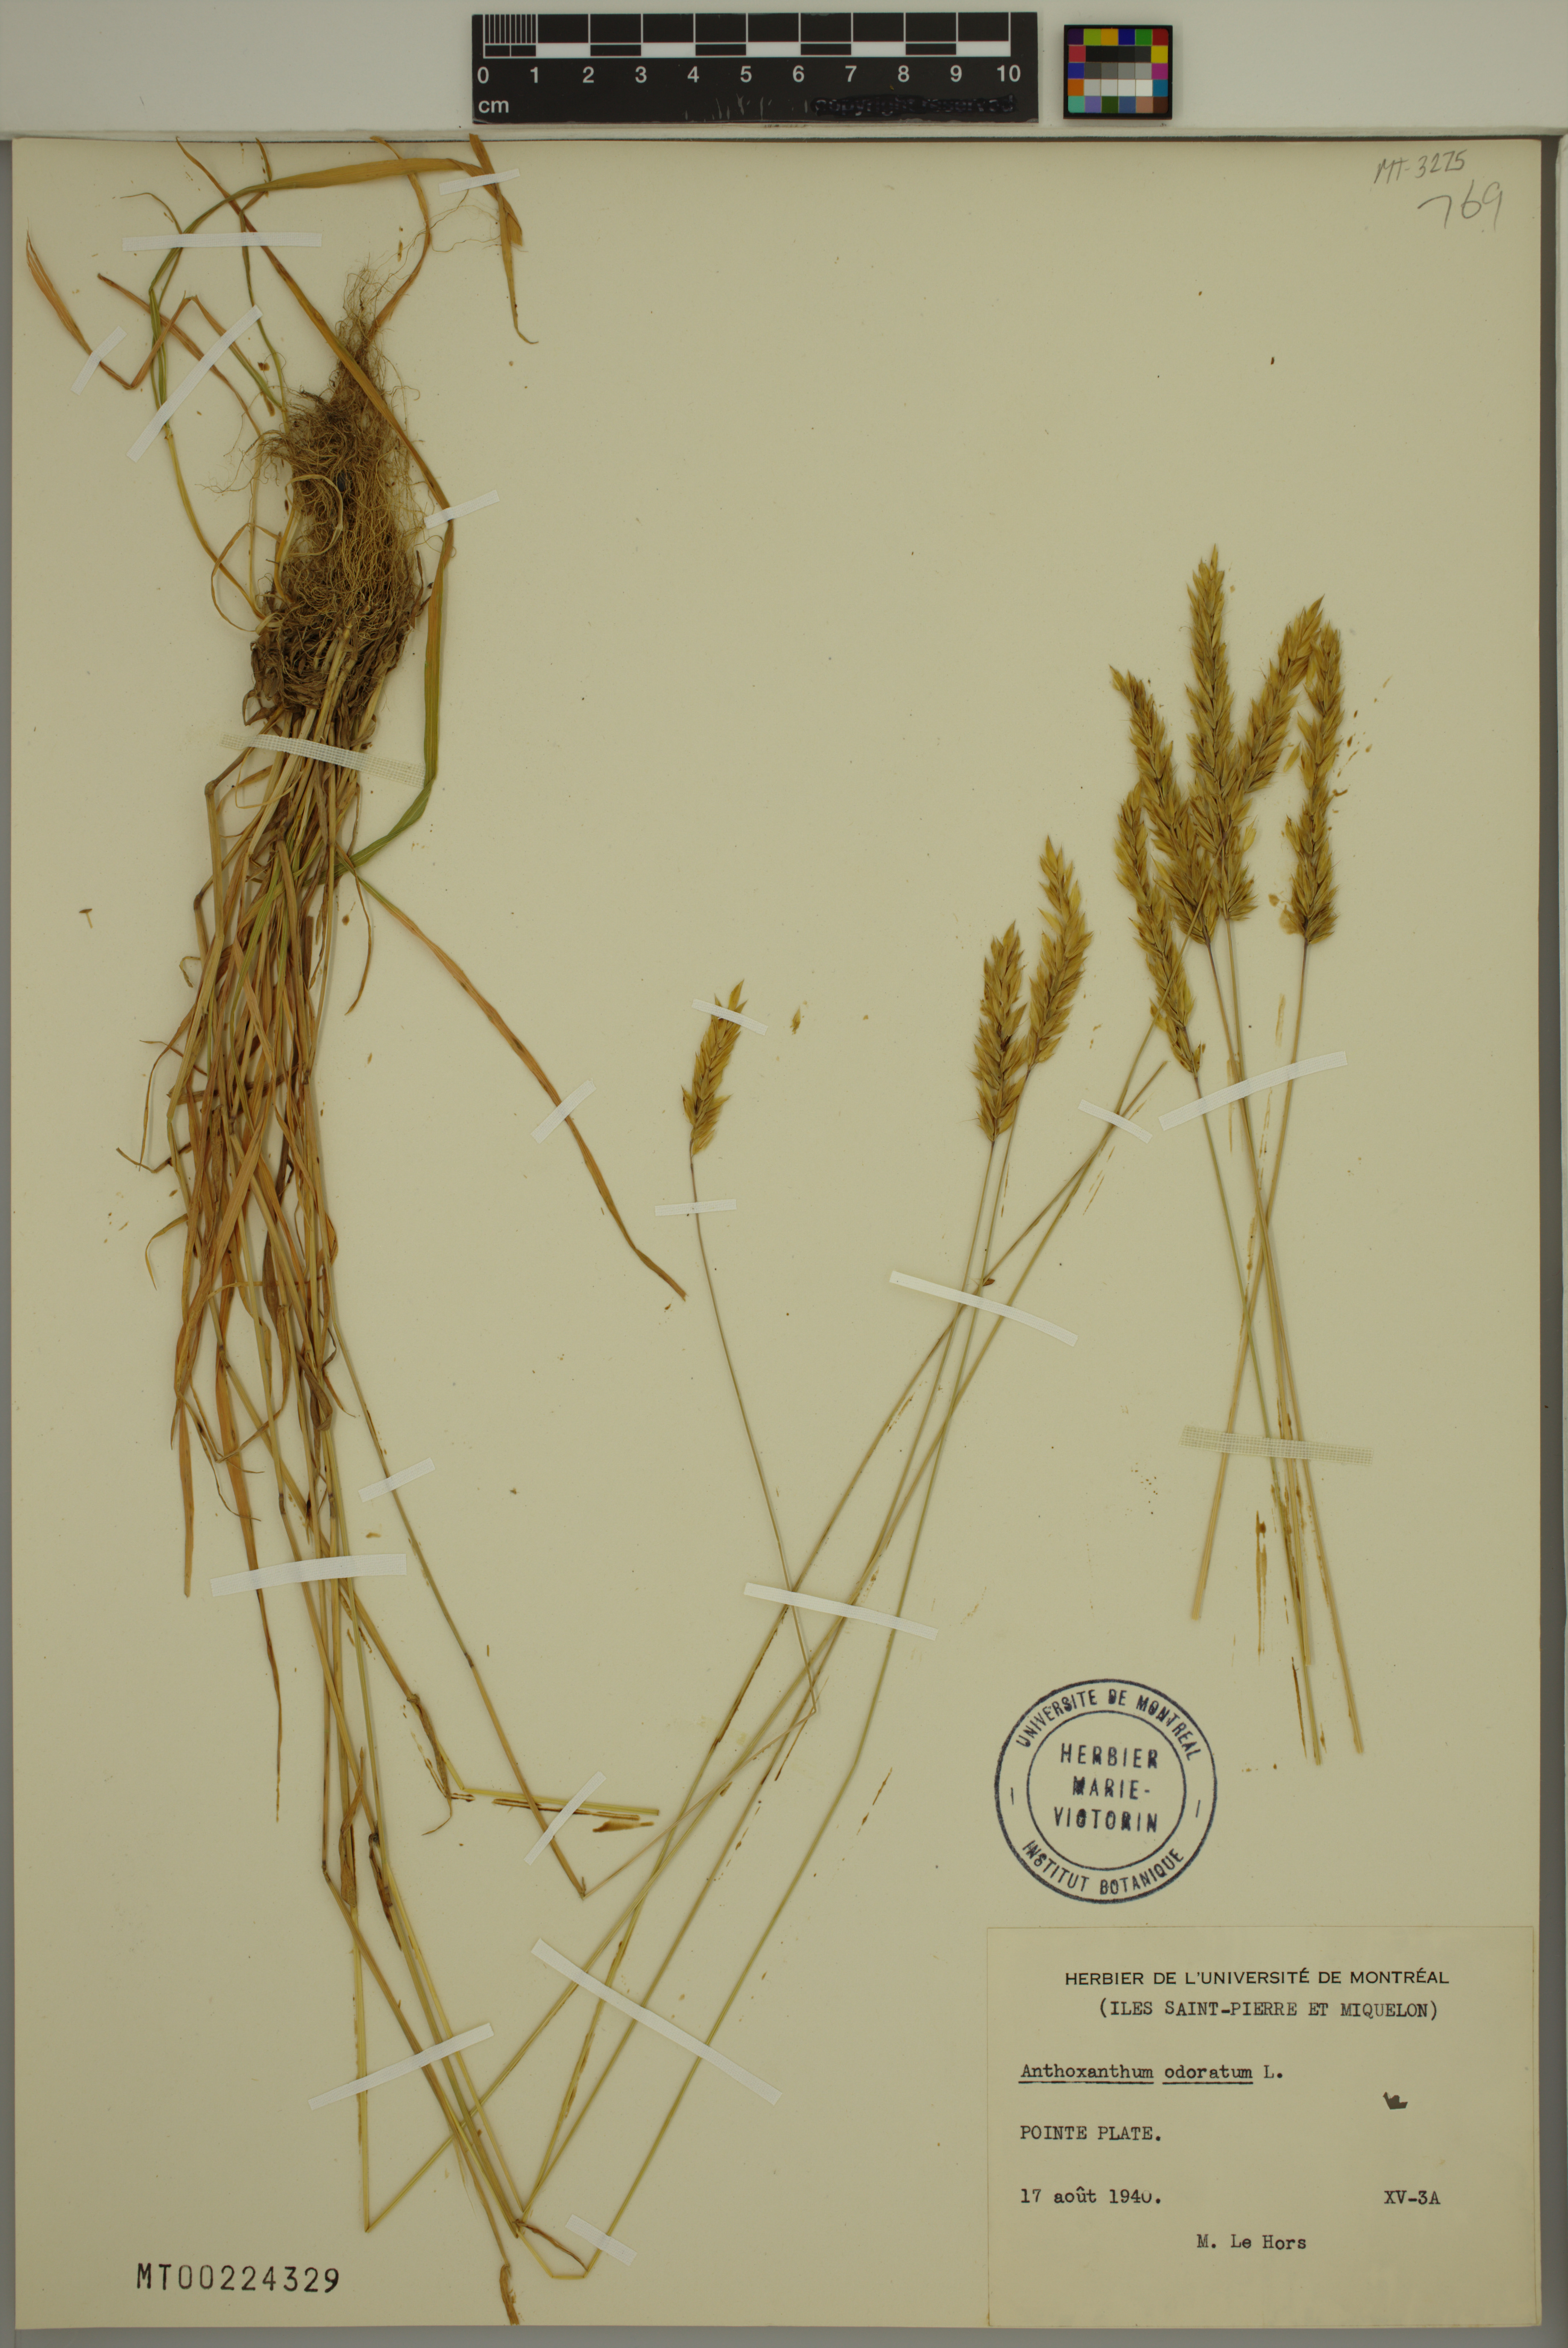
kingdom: Plantae
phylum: Tracheophyta
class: Liliopsida
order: Poales
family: Poaceae
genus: Anthoxanthum
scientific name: Anthoxanthum odoratum
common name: Sweet vernalgrass
